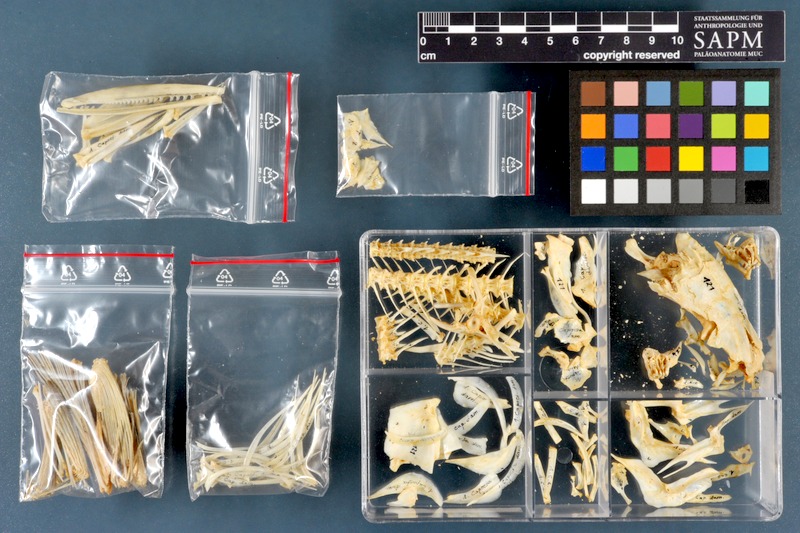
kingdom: Animalia
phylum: Chordata
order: Cypriniformes
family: Cyprinidae
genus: Capoeta
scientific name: Capoeta damascina
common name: Levantine scraper
